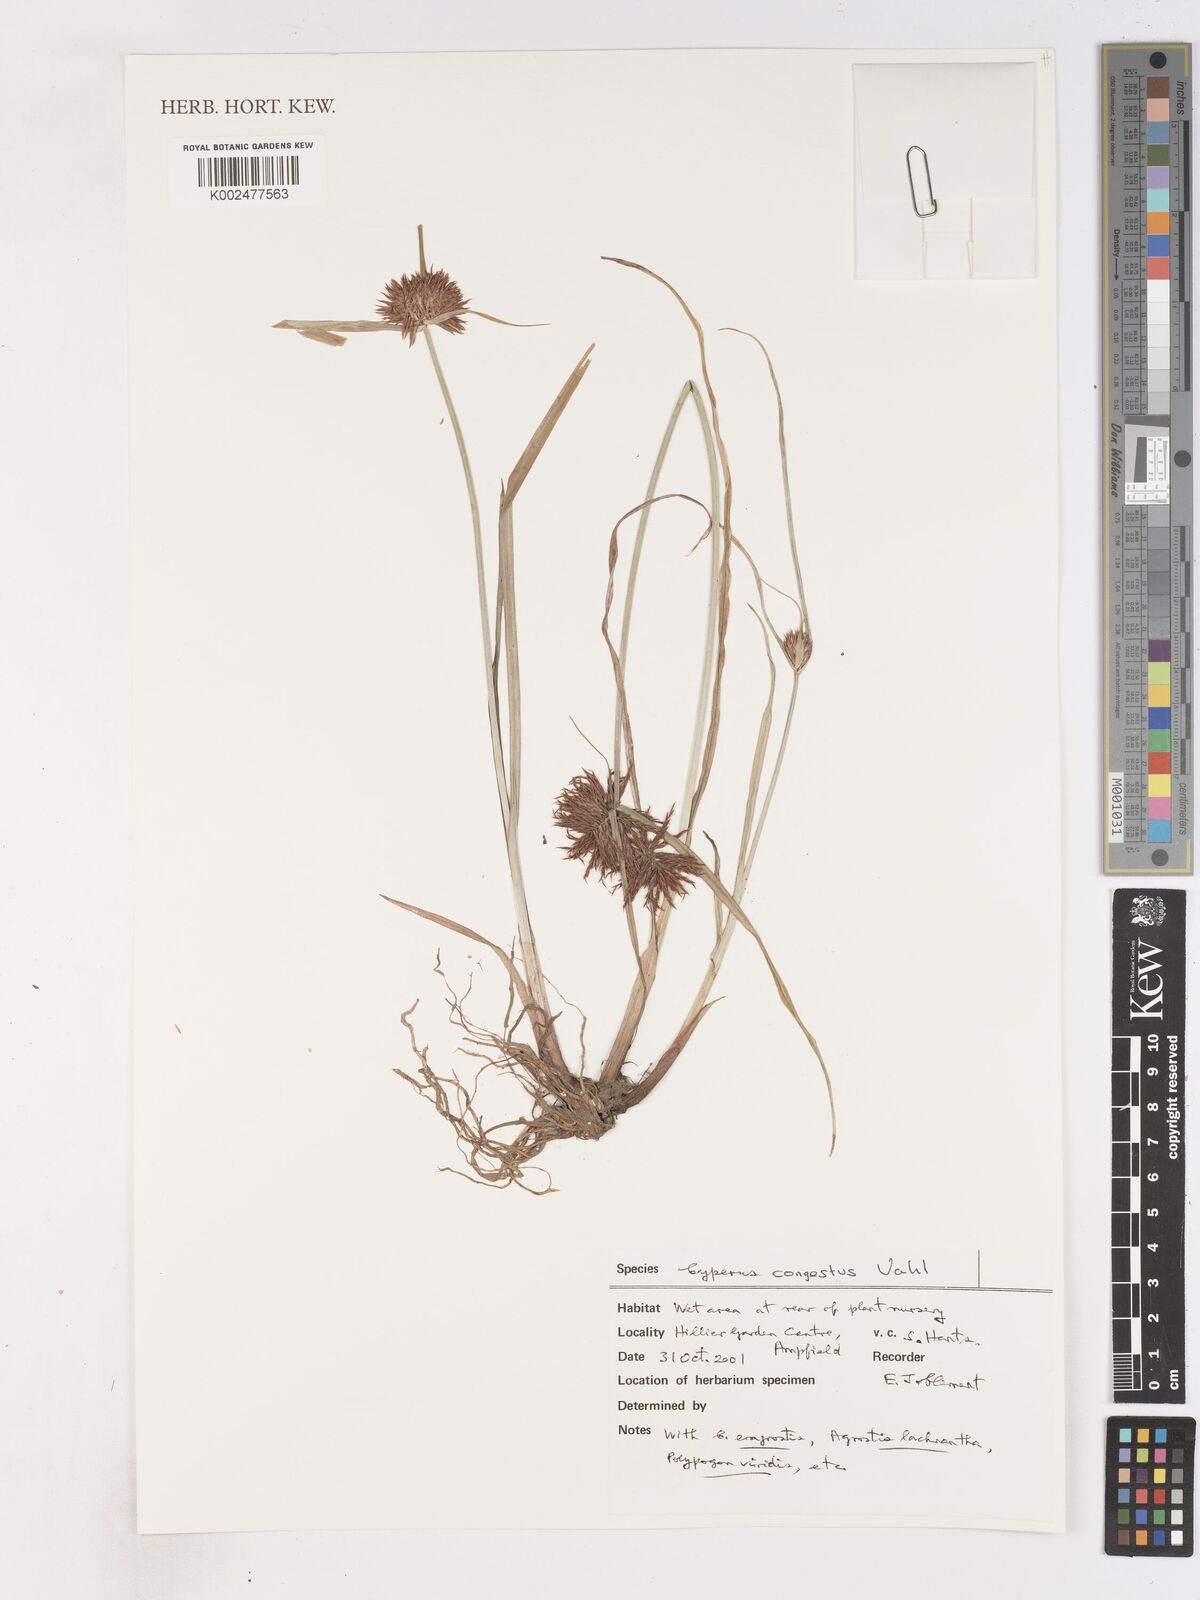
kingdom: Plantae
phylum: Tracheophyta
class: Liliopsida
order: Poales
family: Cyperaceae
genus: Cyperus
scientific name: Cyperus congestus
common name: Dense flat sedge
